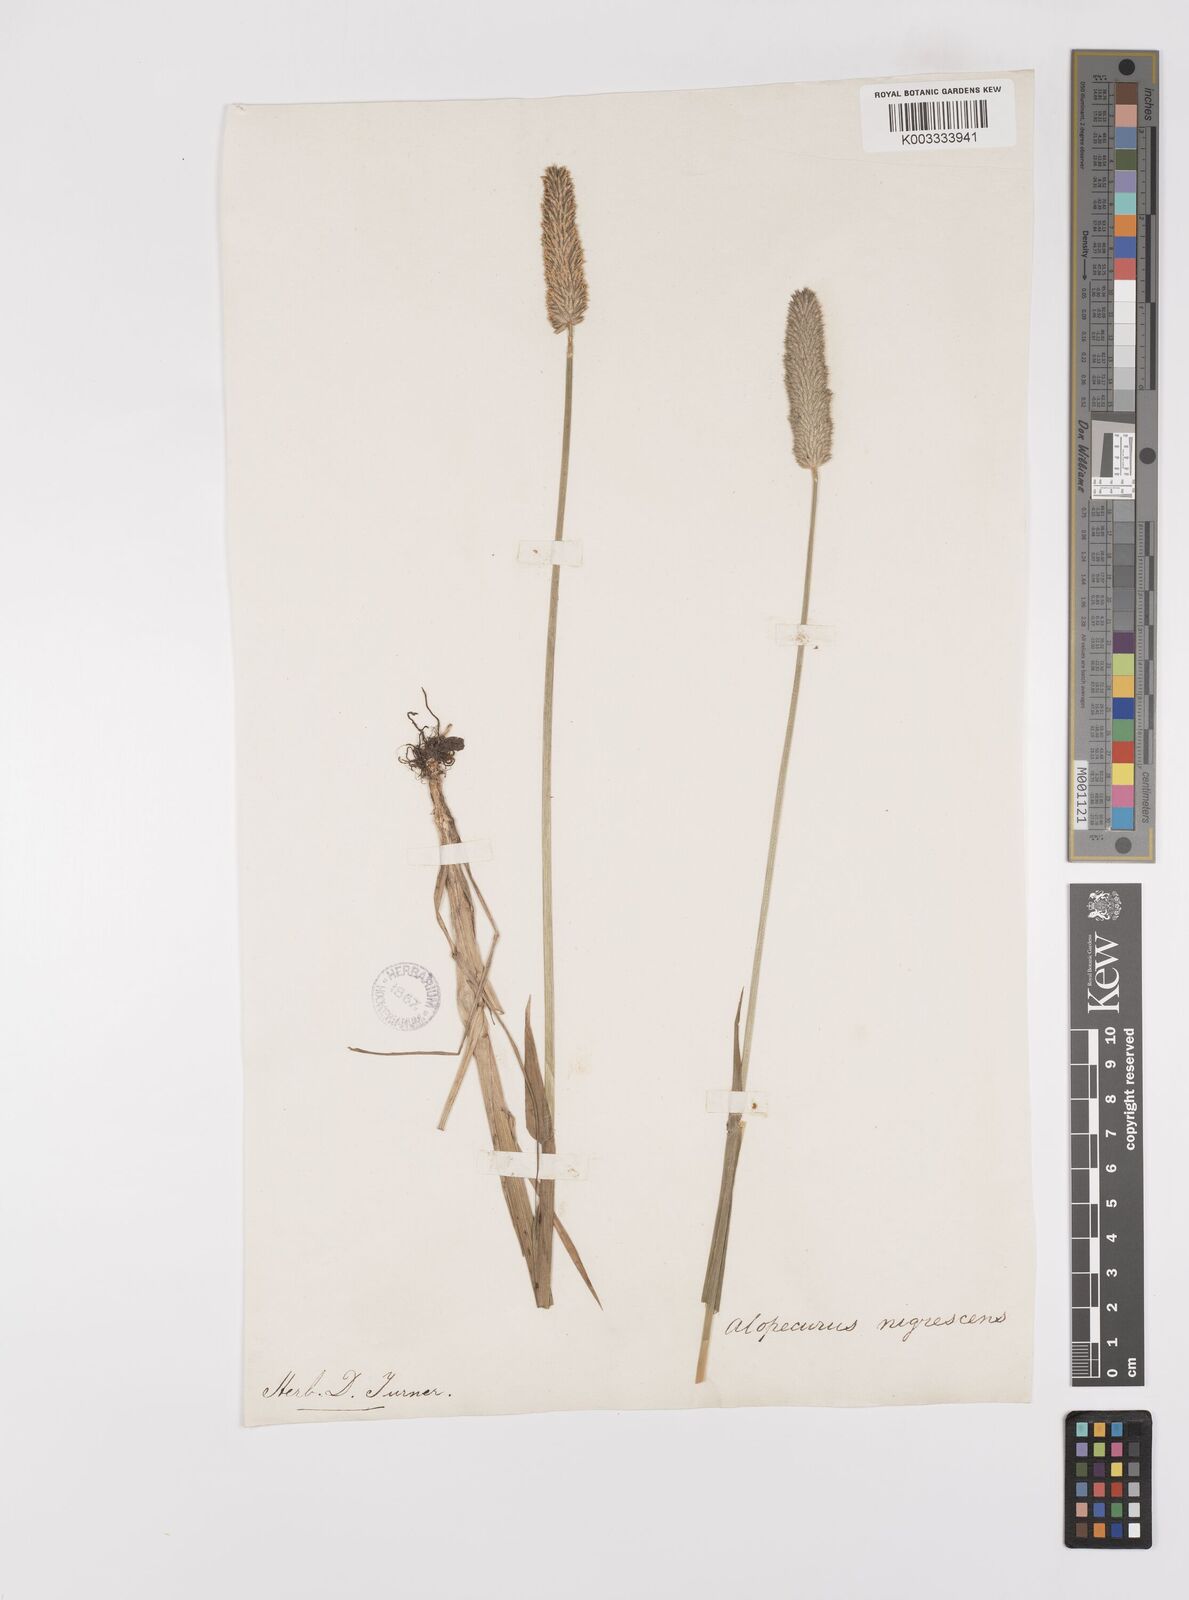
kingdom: Plantae
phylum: Tracheophyta
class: Liliopsida
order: Poales
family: Poaceae
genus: Alopecurus
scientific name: Alopecurus arundinaceus
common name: Creeping meadow foxtail
